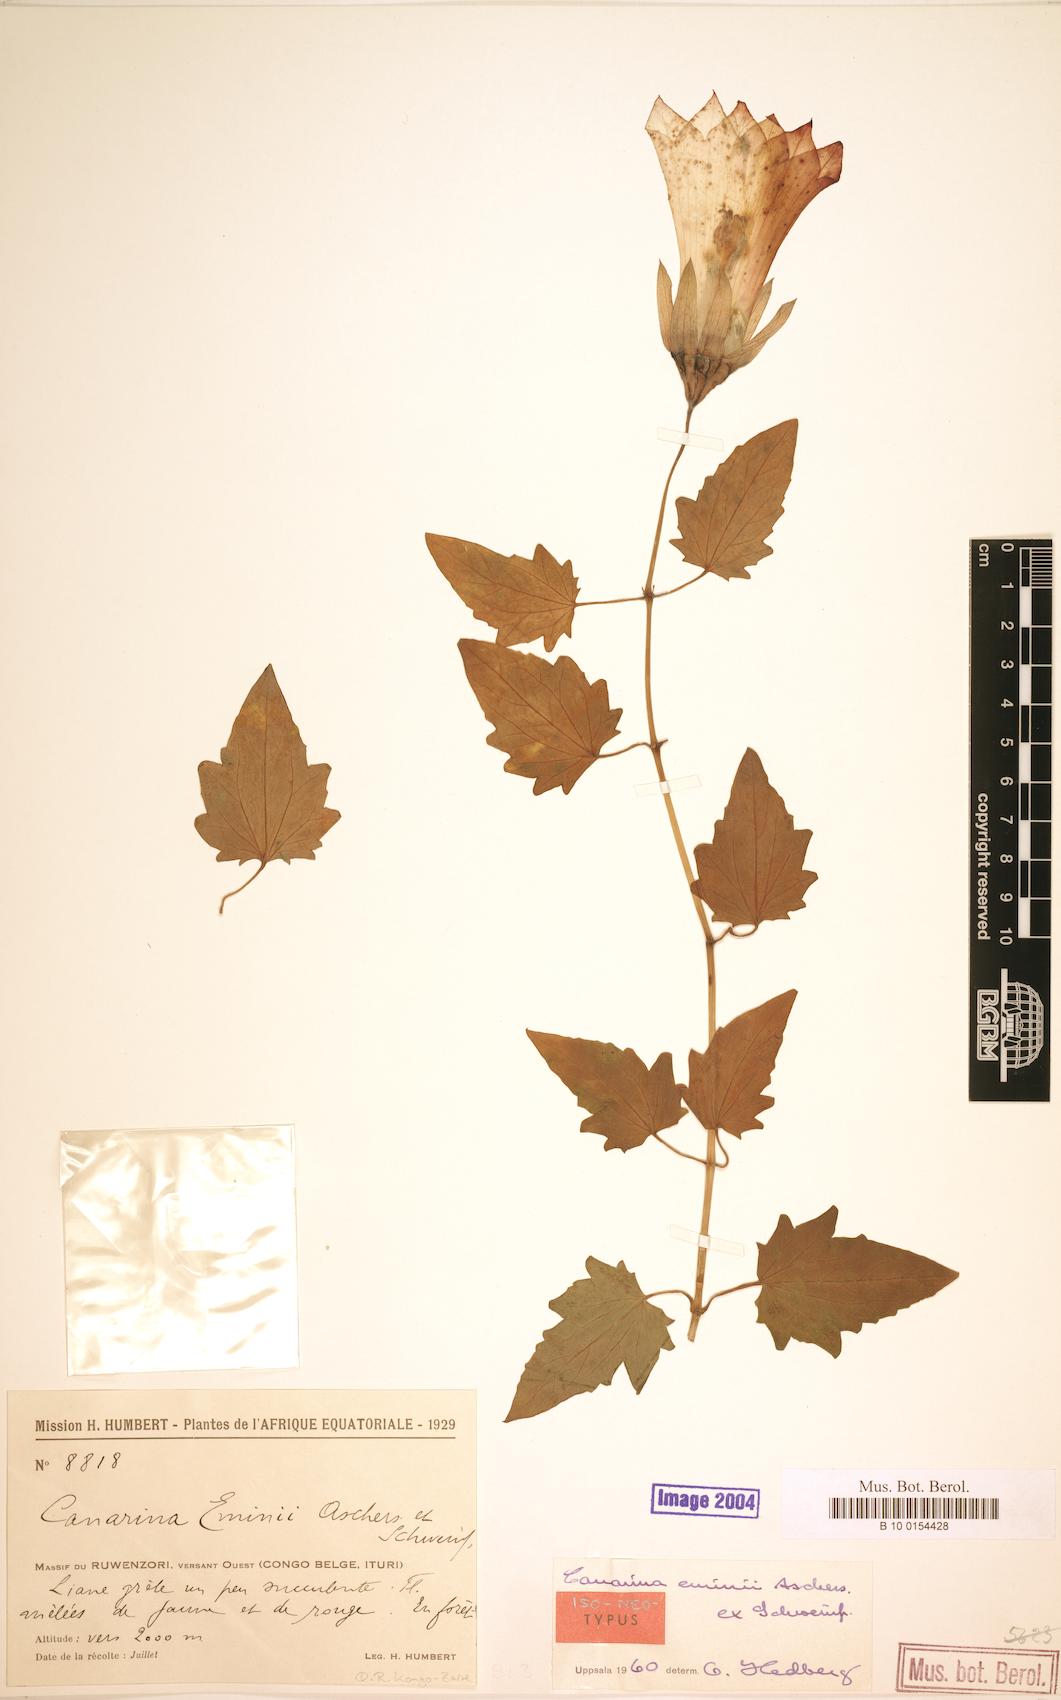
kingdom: Plantae
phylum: Tracheophyta
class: Magnoliopsida
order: Asterales
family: Campanulaceae
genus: Canarina
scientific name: Canarina eminii
